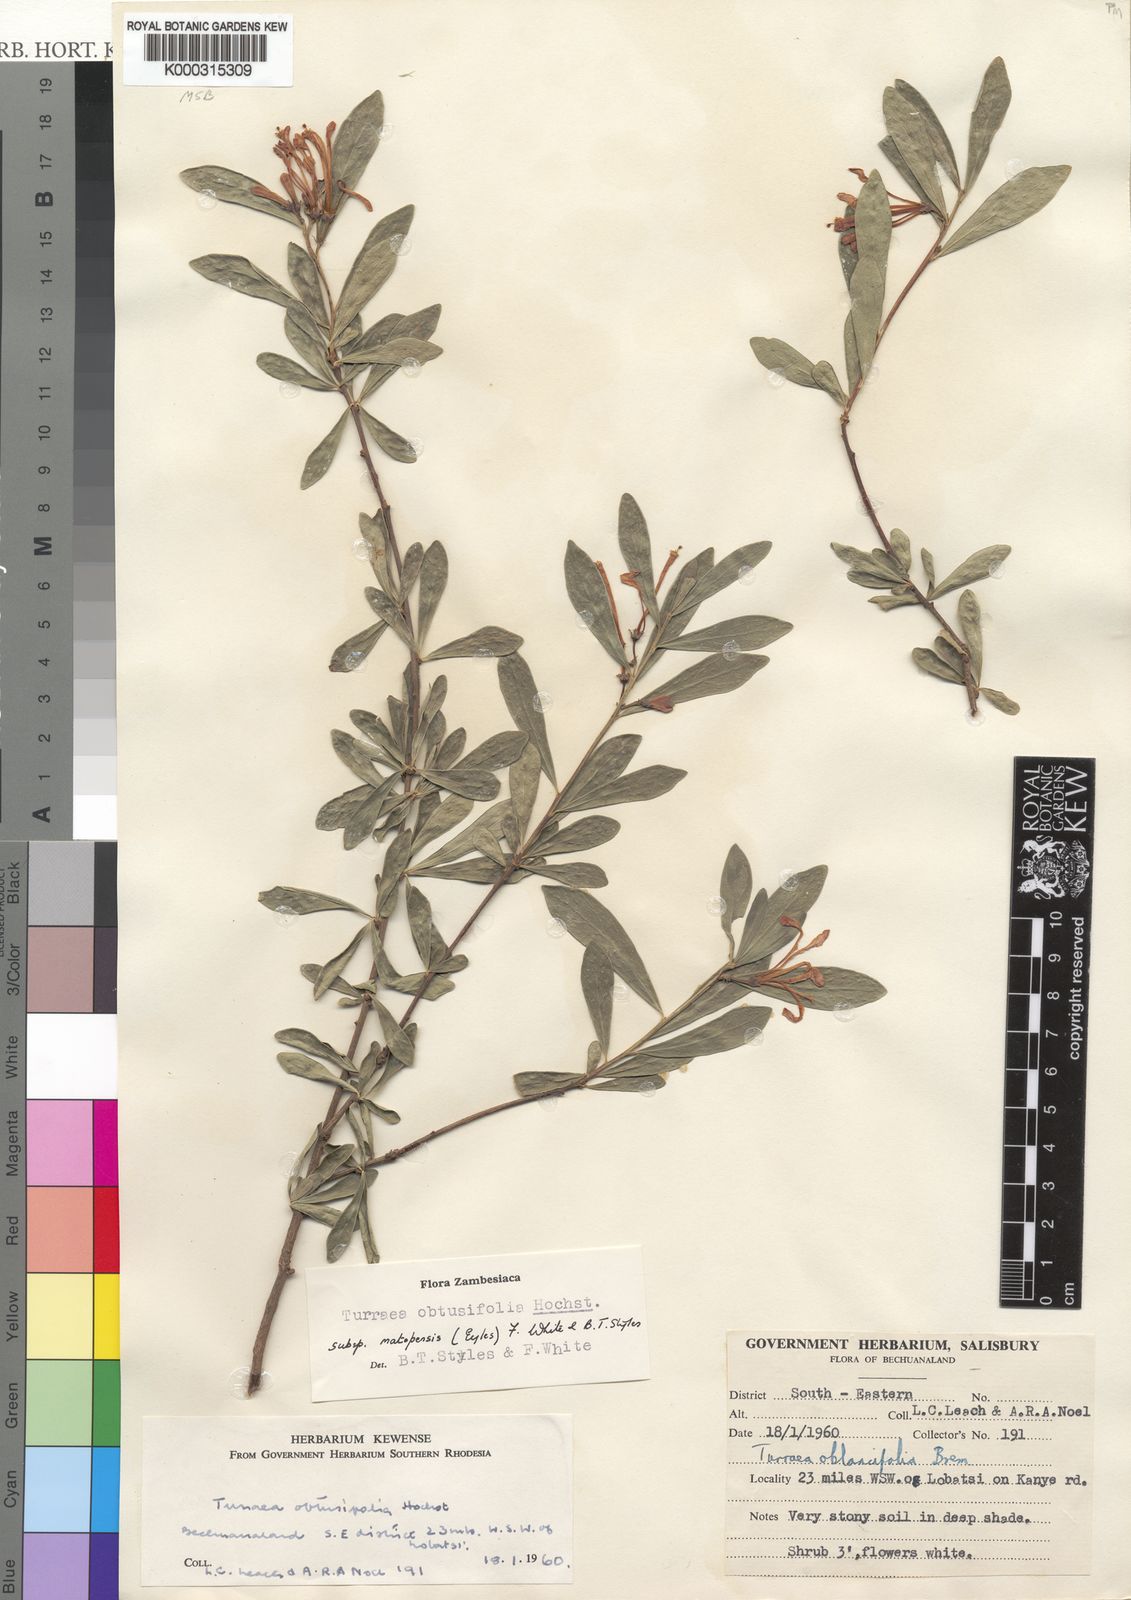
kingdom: Plantae
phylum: Tracheophyta
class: Magnoliopsida
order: Sapindales
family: Meliaceae
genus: Turraea
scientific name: Turraea obtusifolia
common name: Small honeysuckle tree
